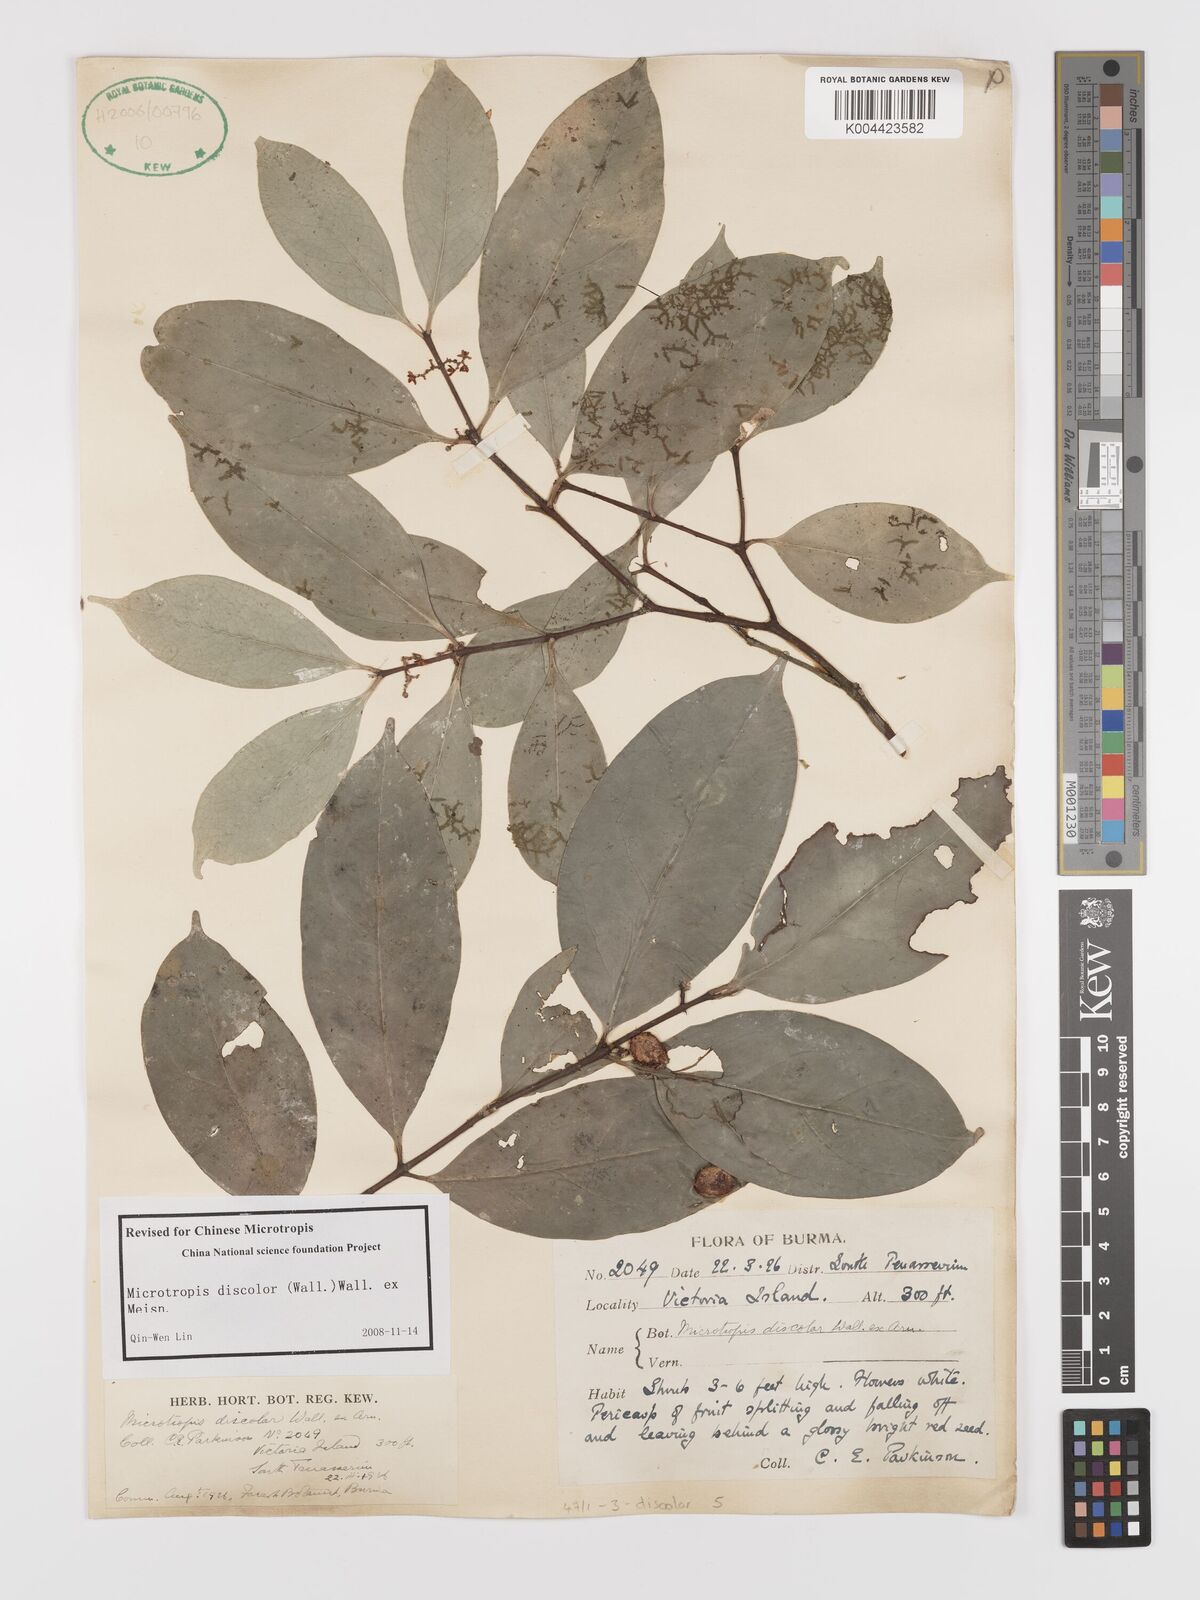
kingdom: Plantae
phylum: Tracheophyta
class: Magnoliopsida
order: Celastrales
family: Celastraceae
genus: Microtropis
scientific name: Microtropis discolor
